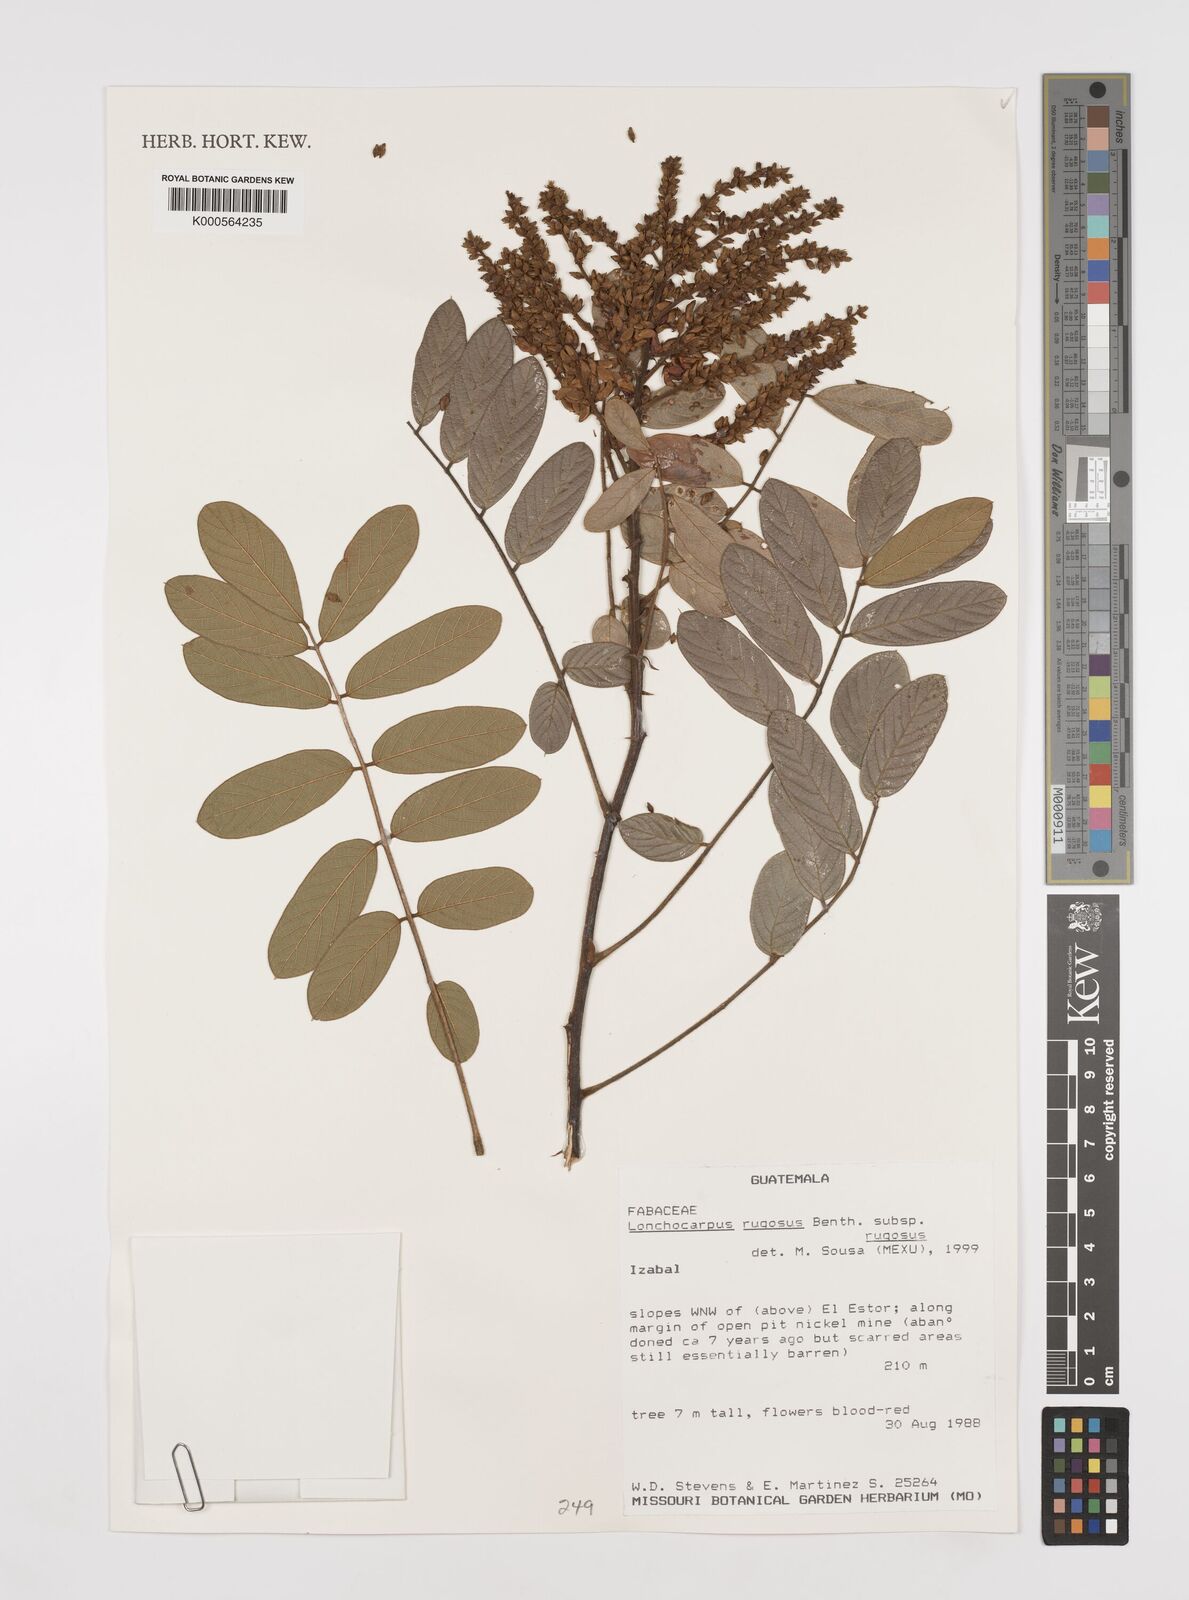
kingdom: Plantae
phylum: Tracheophyta
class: Magnoliopsida
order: Fabales
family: Fabaceae
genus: Lonchocarpus
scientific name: Lonchocarpus rugosus
